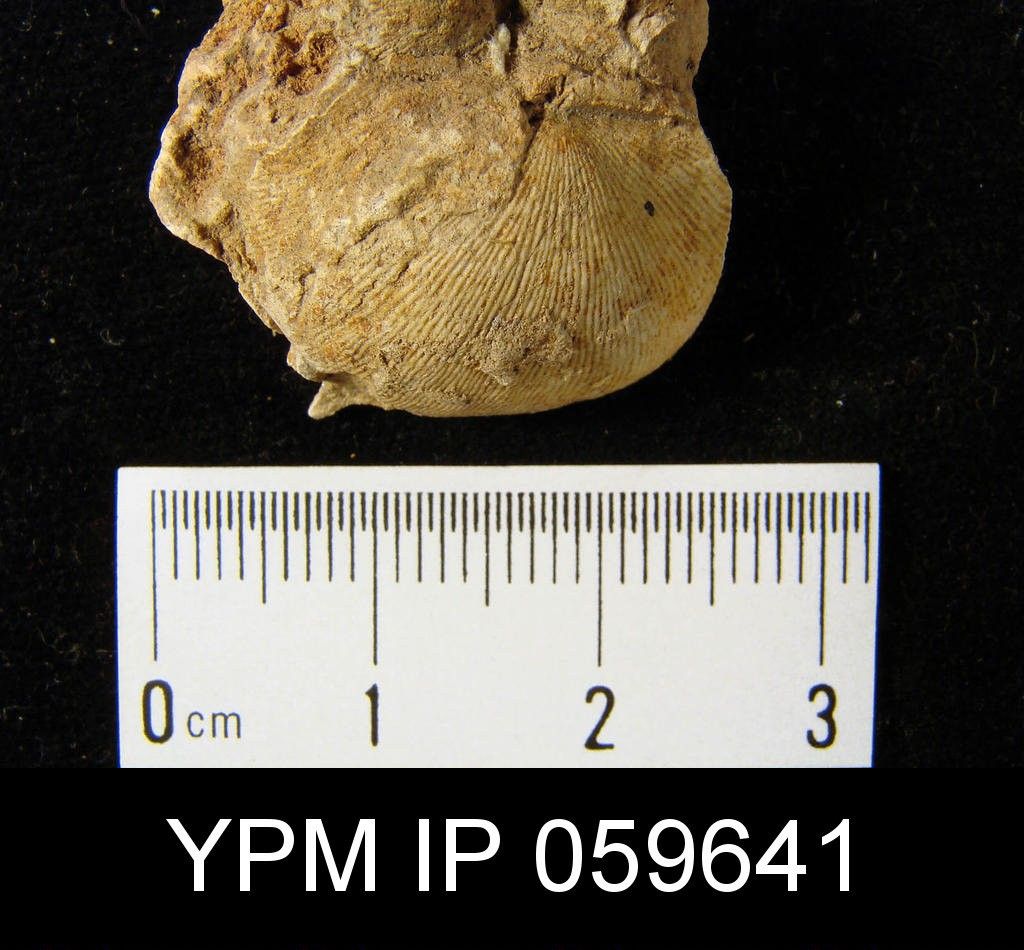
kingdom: Animalia
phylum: Brachiopoda
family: Eodevonariidae
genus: Eodevonaria
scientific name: Eodevonaria
